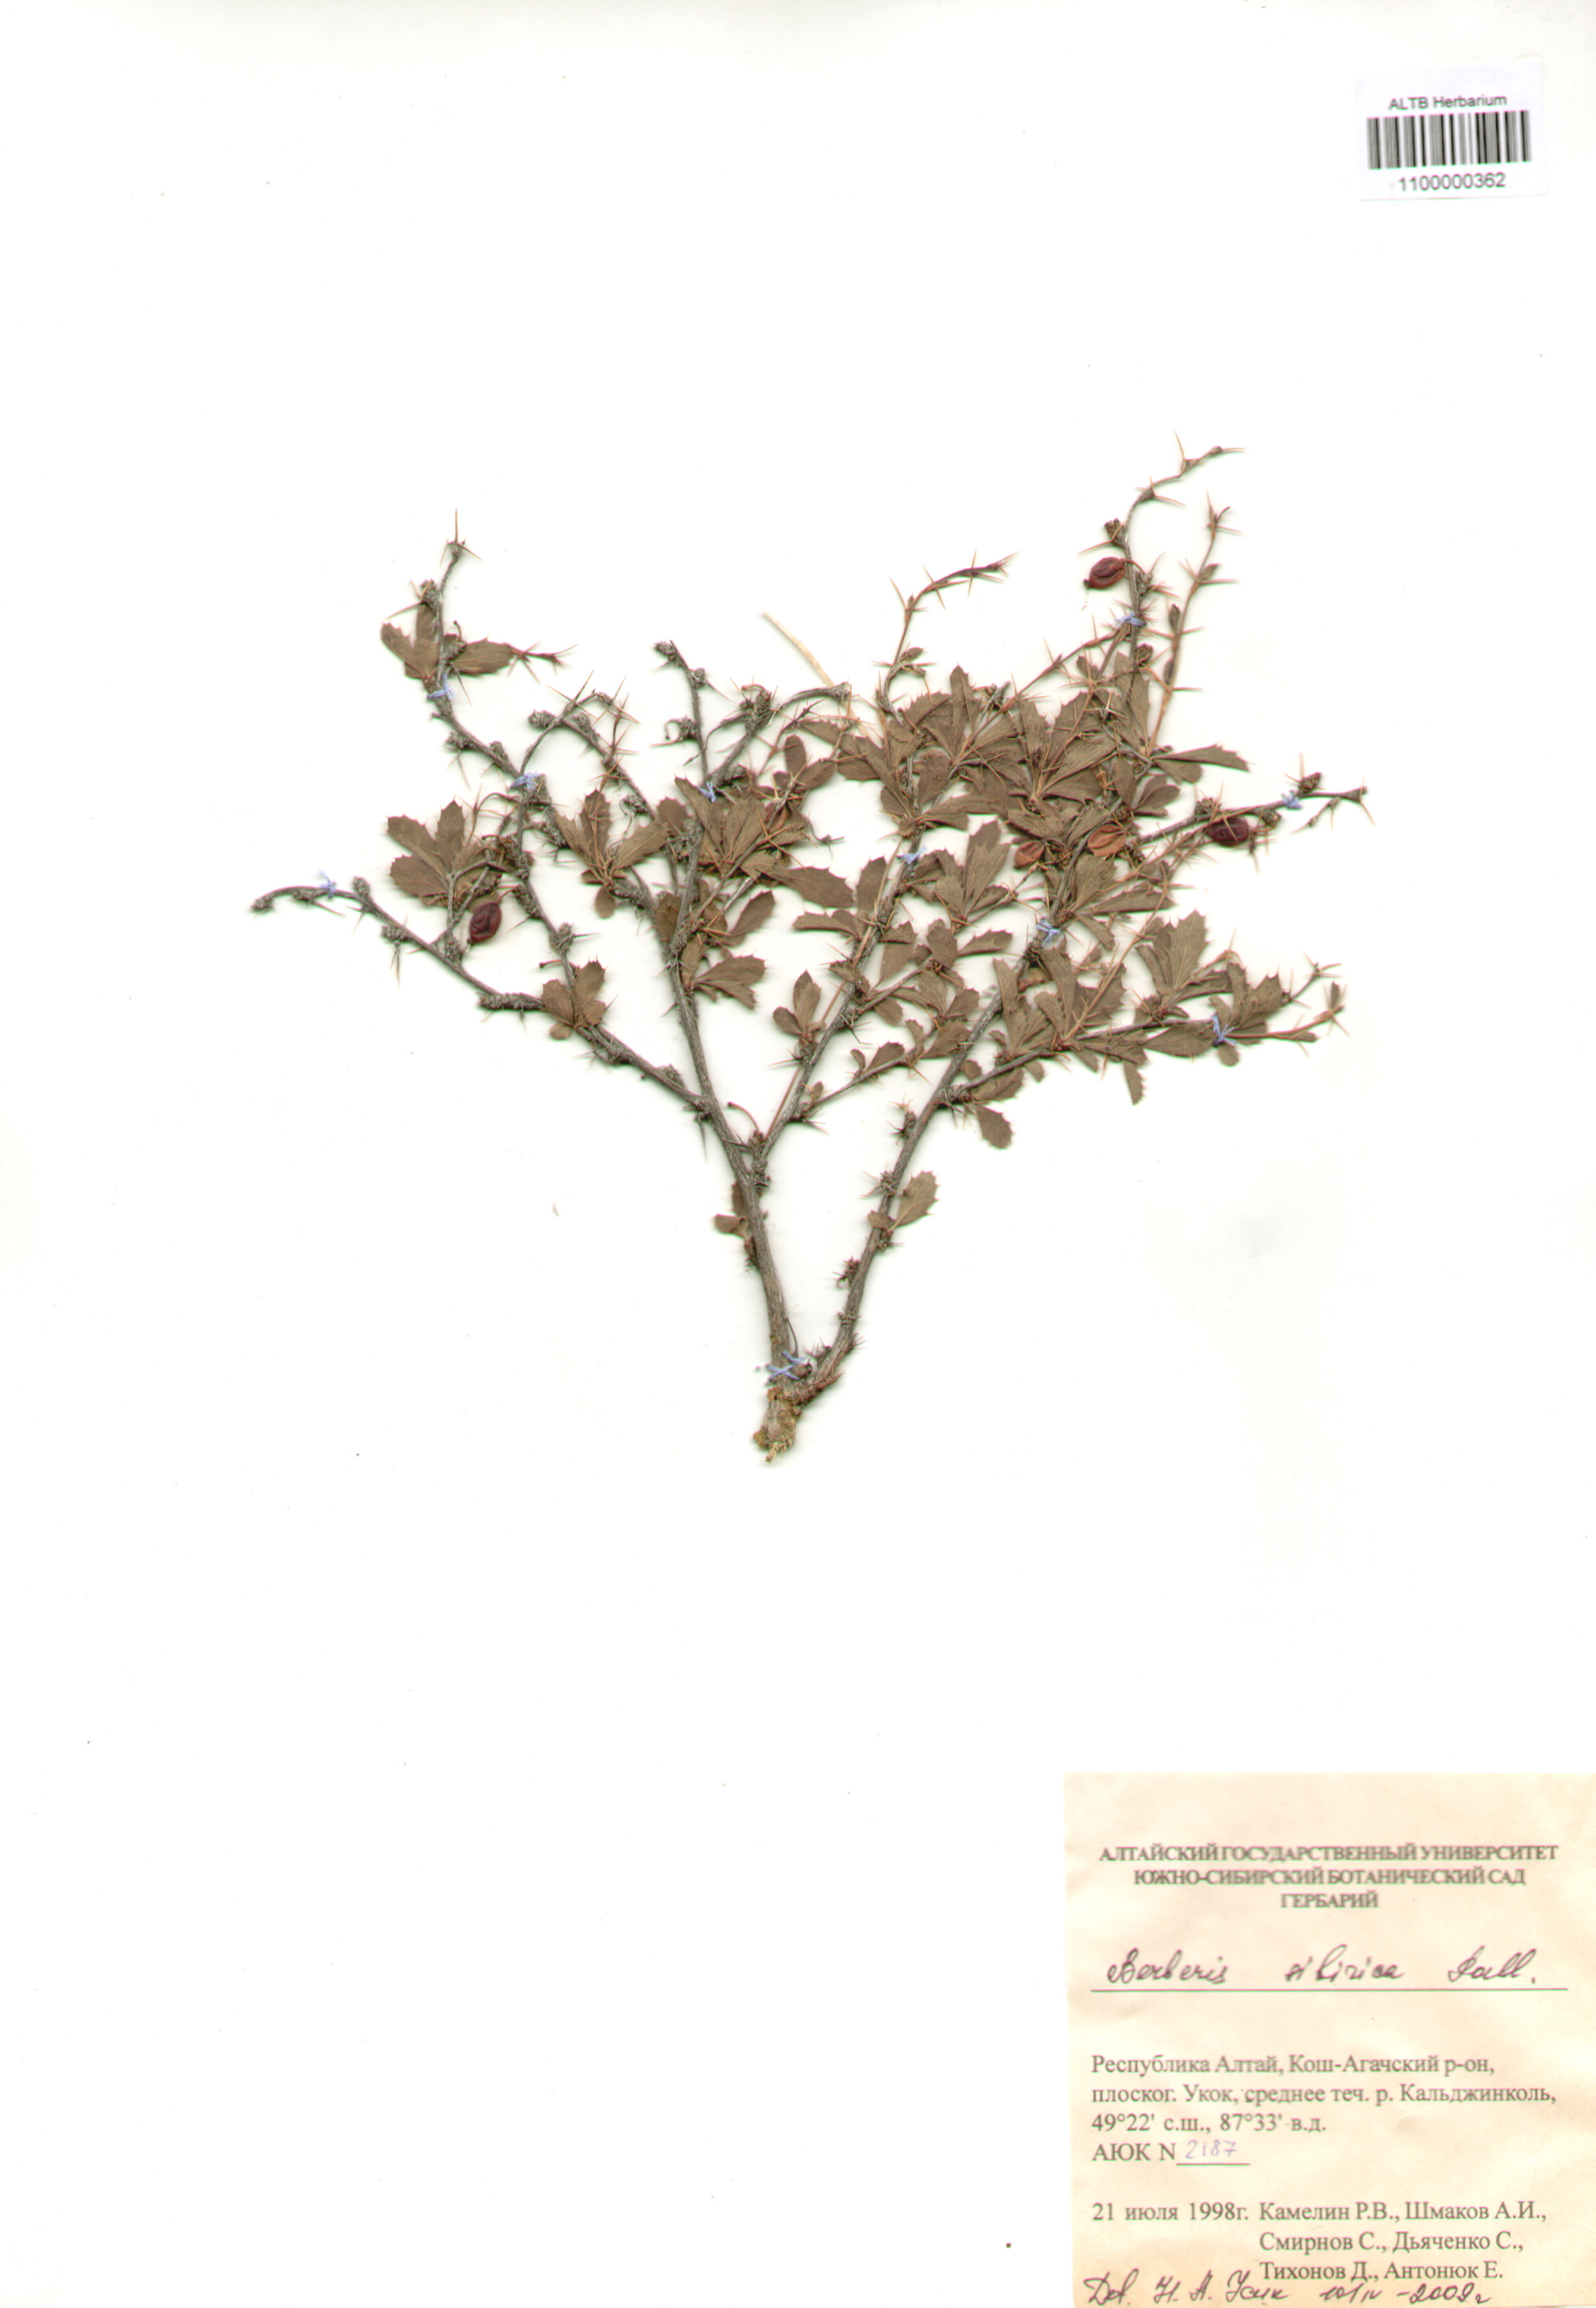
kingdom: Plantae
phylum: Tracheophyta
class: Magnoliopsida
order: Ranunculales
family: Berberidaceae
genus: Berberis
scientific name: Berberis sibirica
